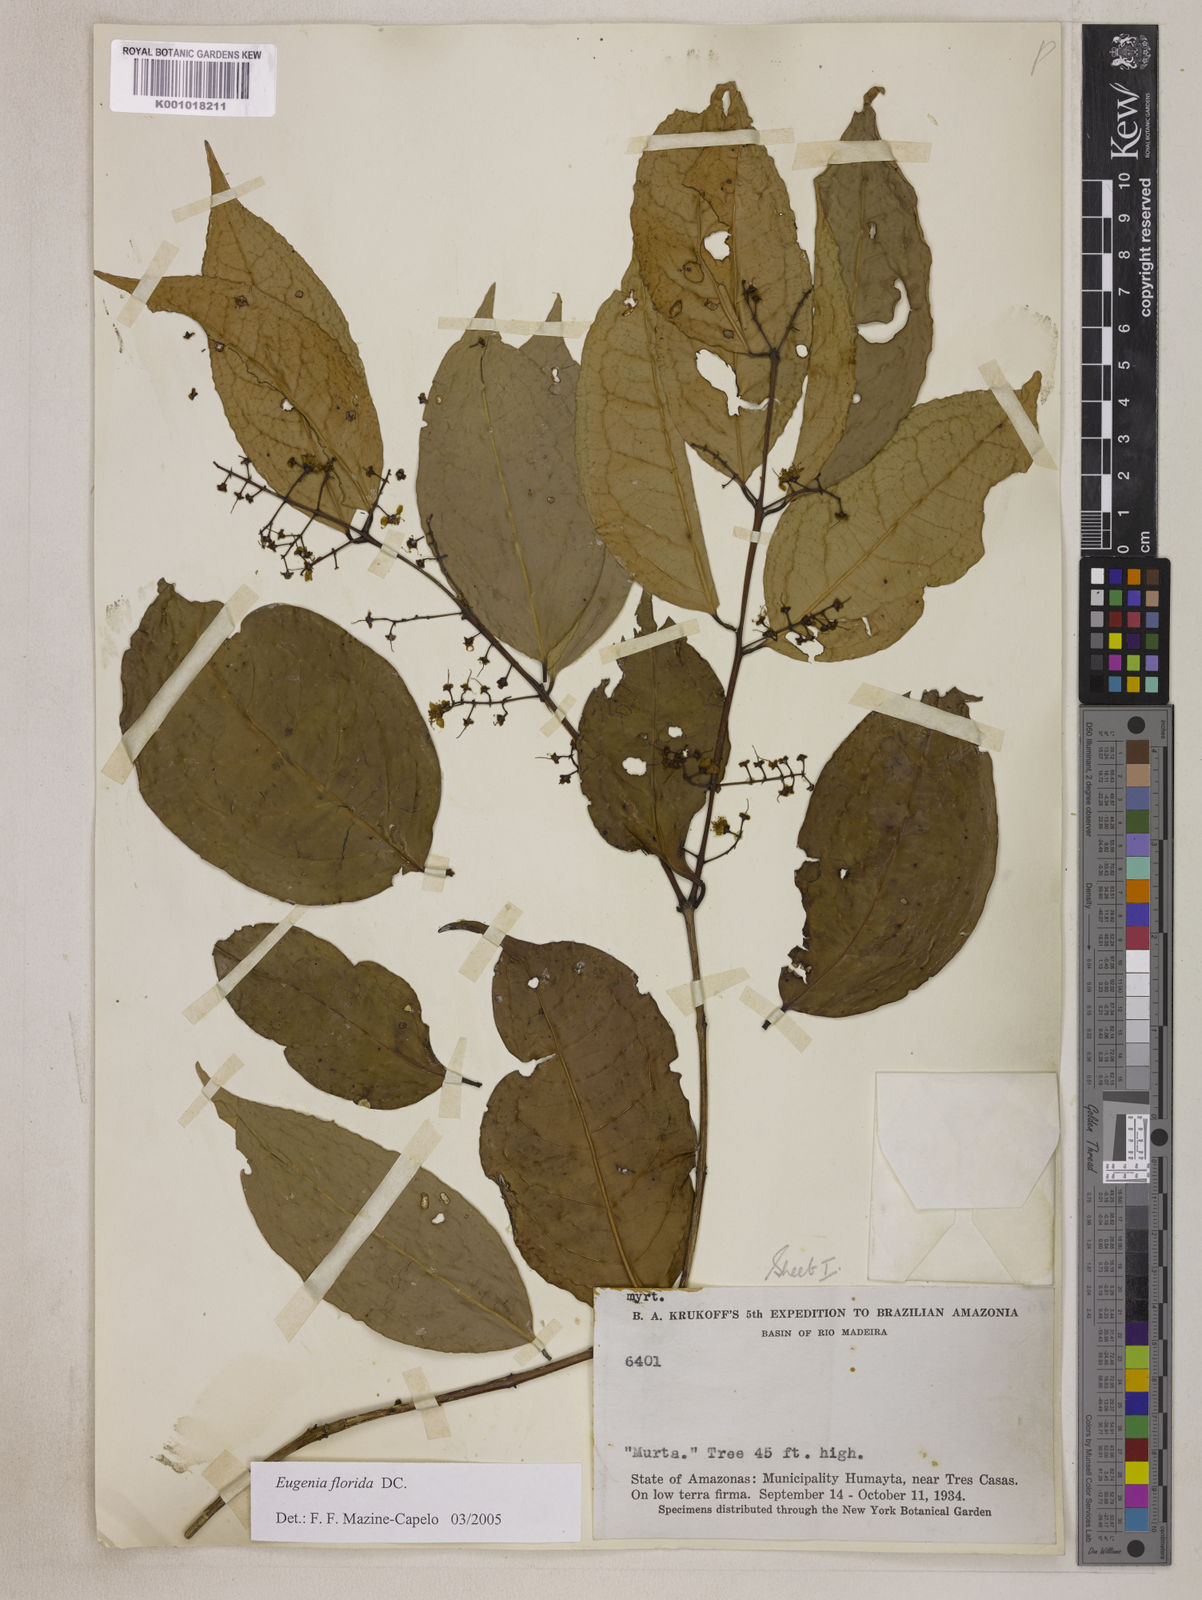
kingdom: Plantae
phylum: Tracheophyta
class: Magnoliopsida
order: Myrtales
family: Myrtaceae
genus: Eugenia
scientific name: Eugenia florida
